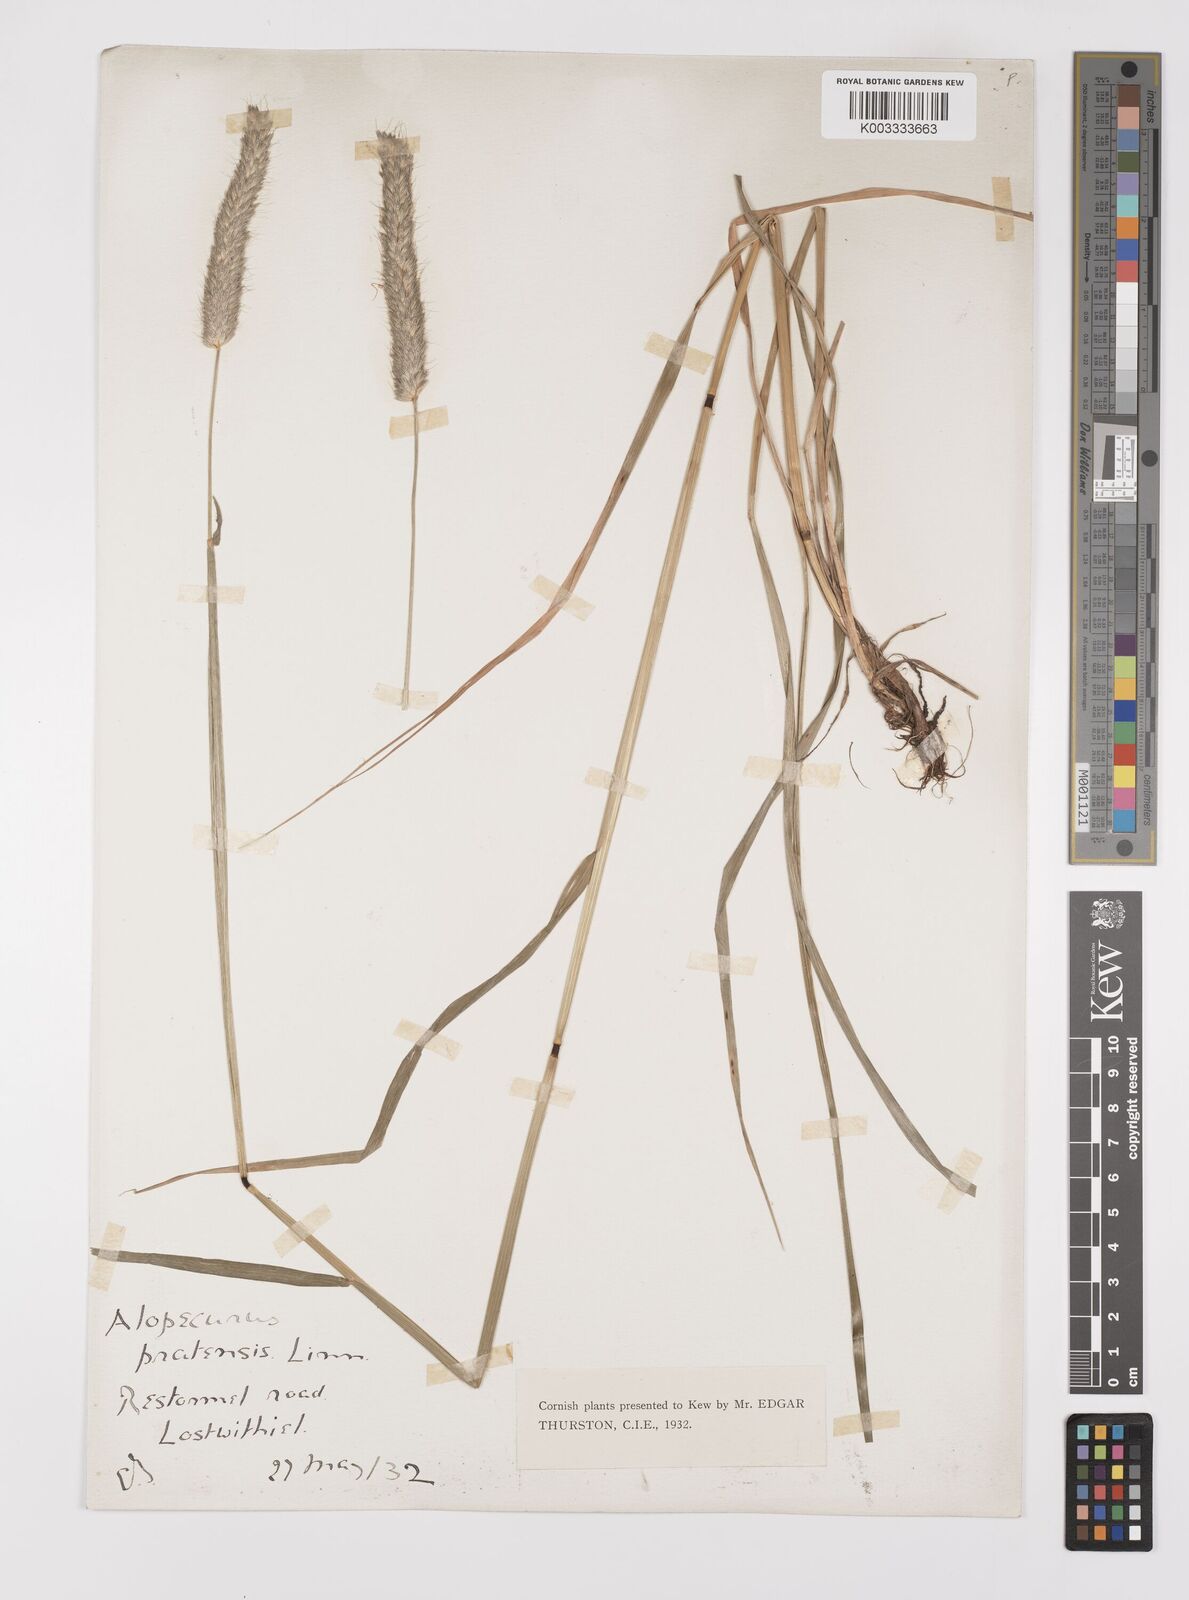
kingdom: Plantae
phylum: Tracheophyta
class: Liliopsida
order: Poales
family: Poaceae
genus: Alopecurus
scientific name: Alopecurus pratensis
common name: Meadow foxtail
